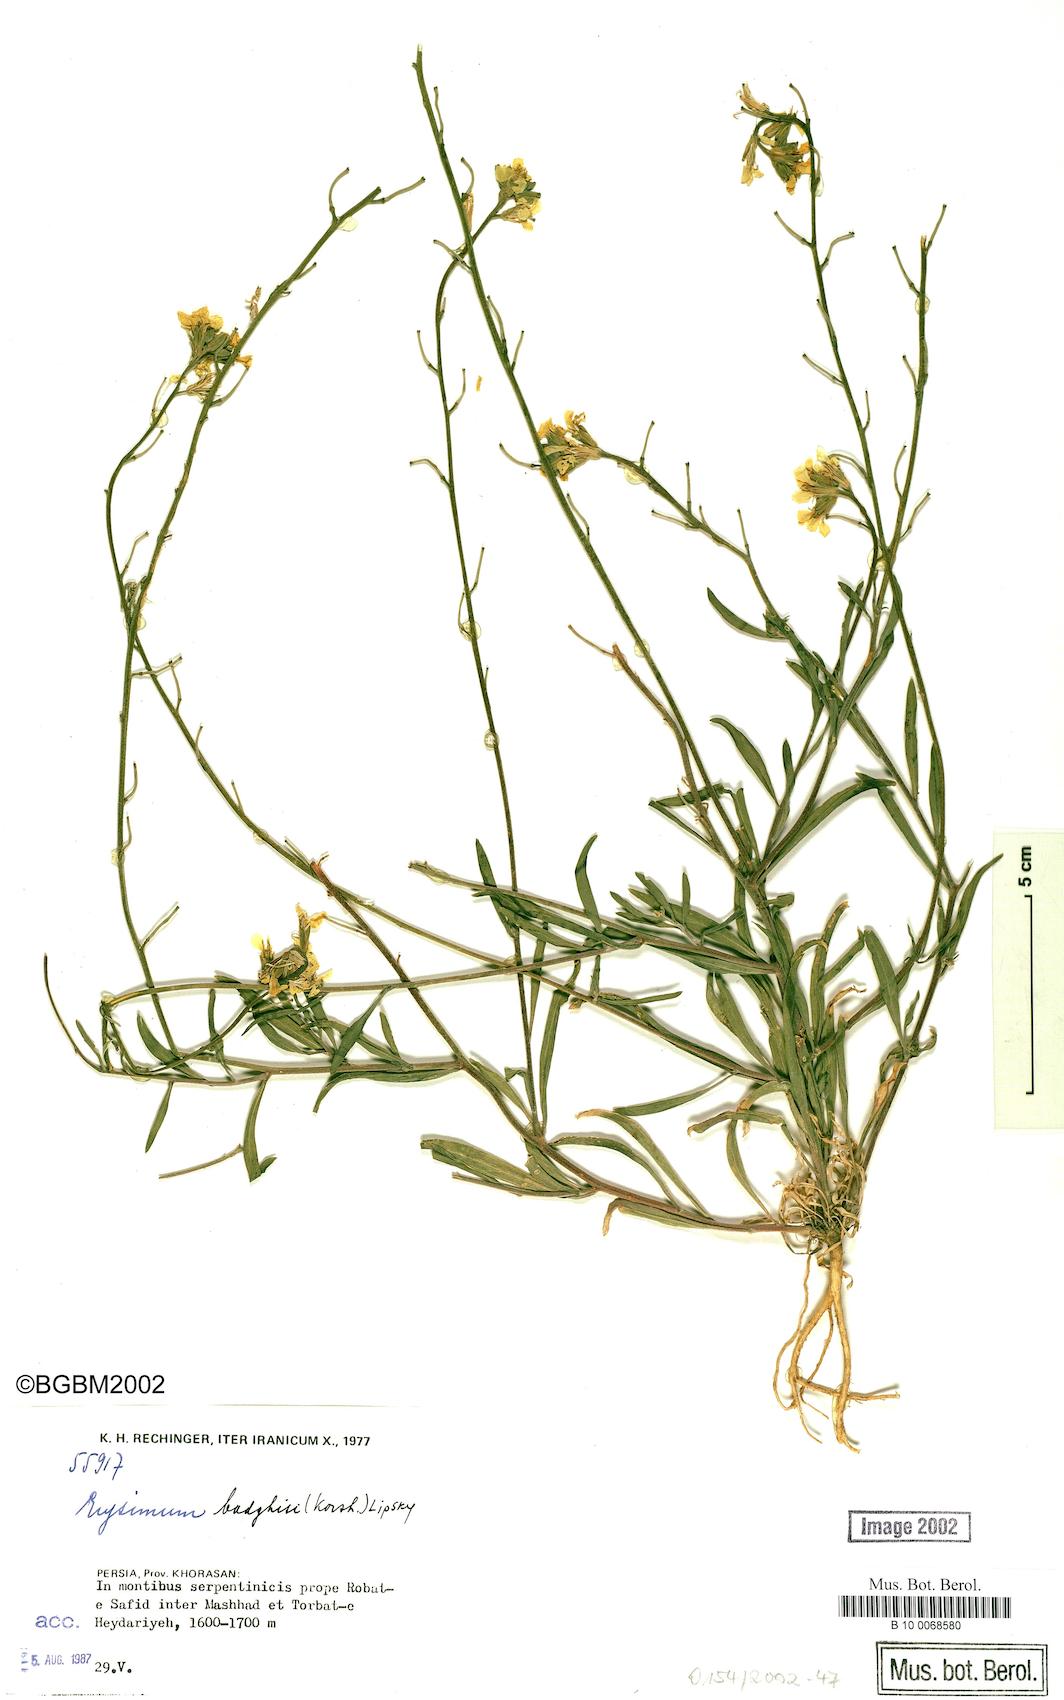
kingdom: Plantae
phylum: Tracheophyta
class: Magnoliopsida
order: Brassicales
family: Brassicaceae
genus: Erysimum
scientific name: Erysimum badghysi
